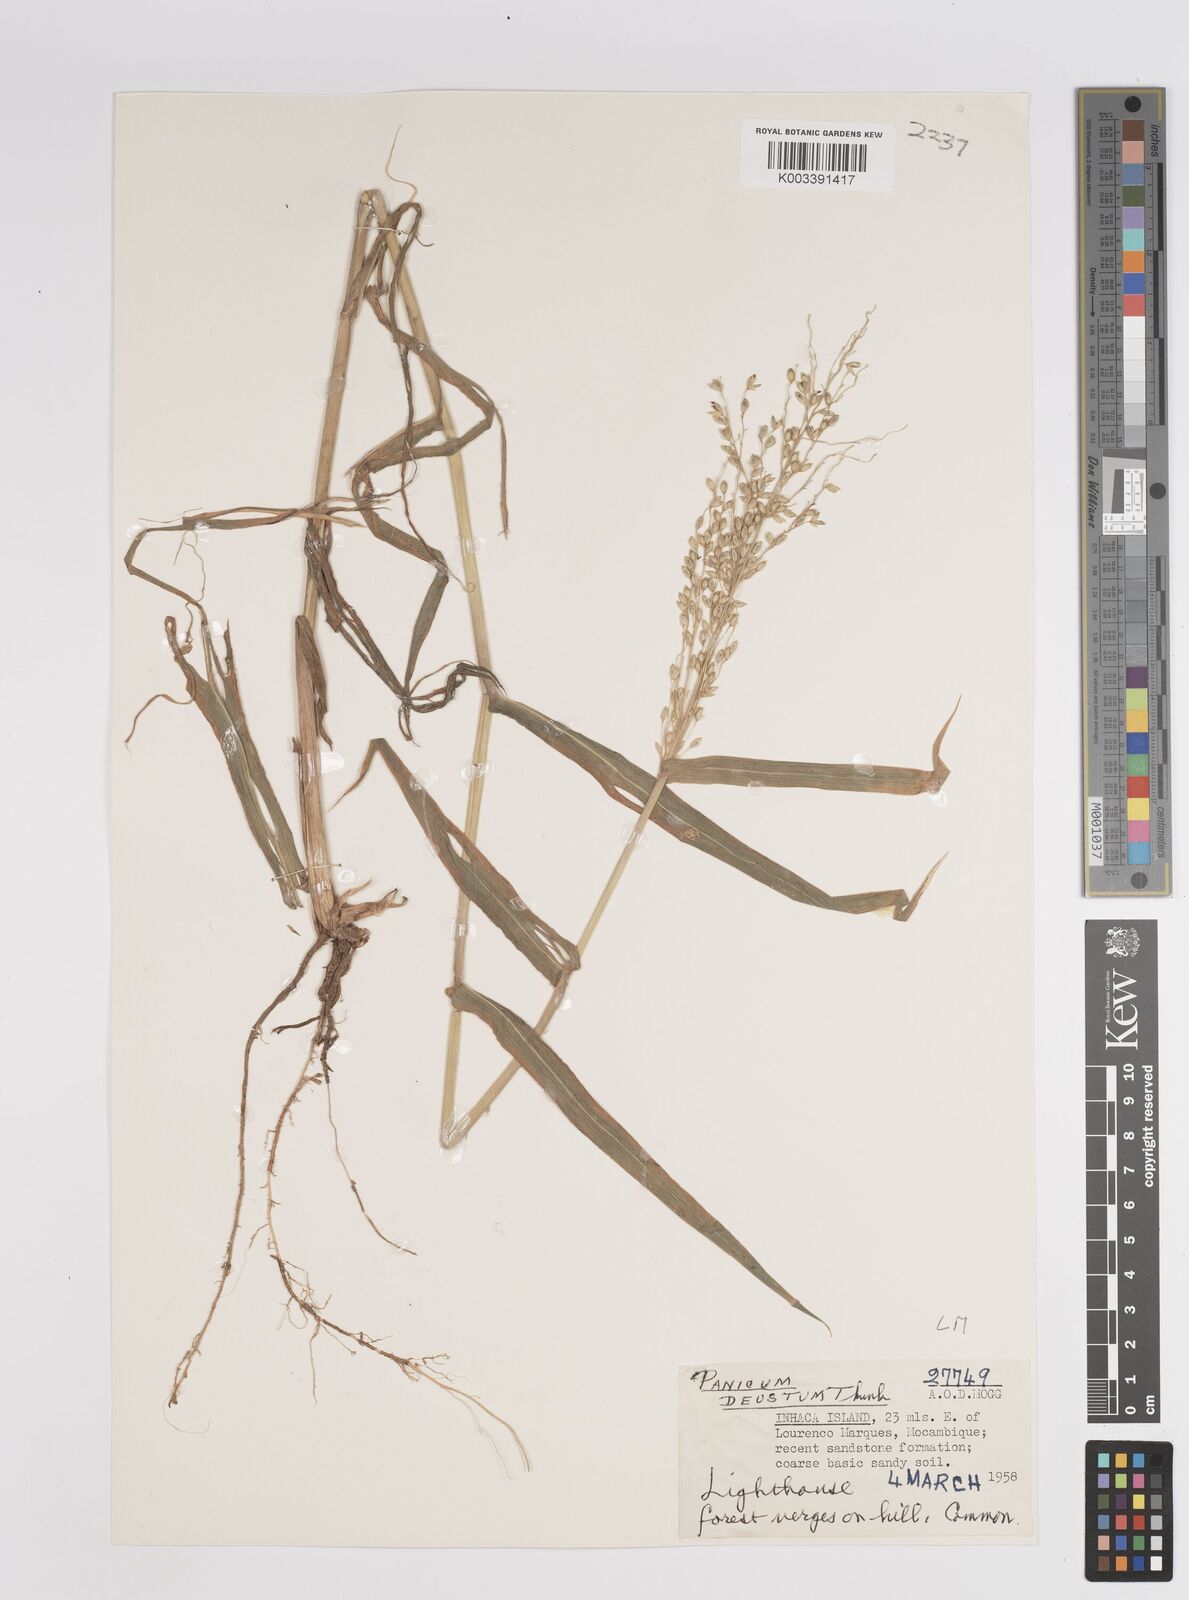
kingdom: Plantae
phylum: Tracheophyta
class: Liliopsida
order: Poales
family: Poaceae
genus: Panicum
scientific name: Panicum deustum
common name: Reed panicum
